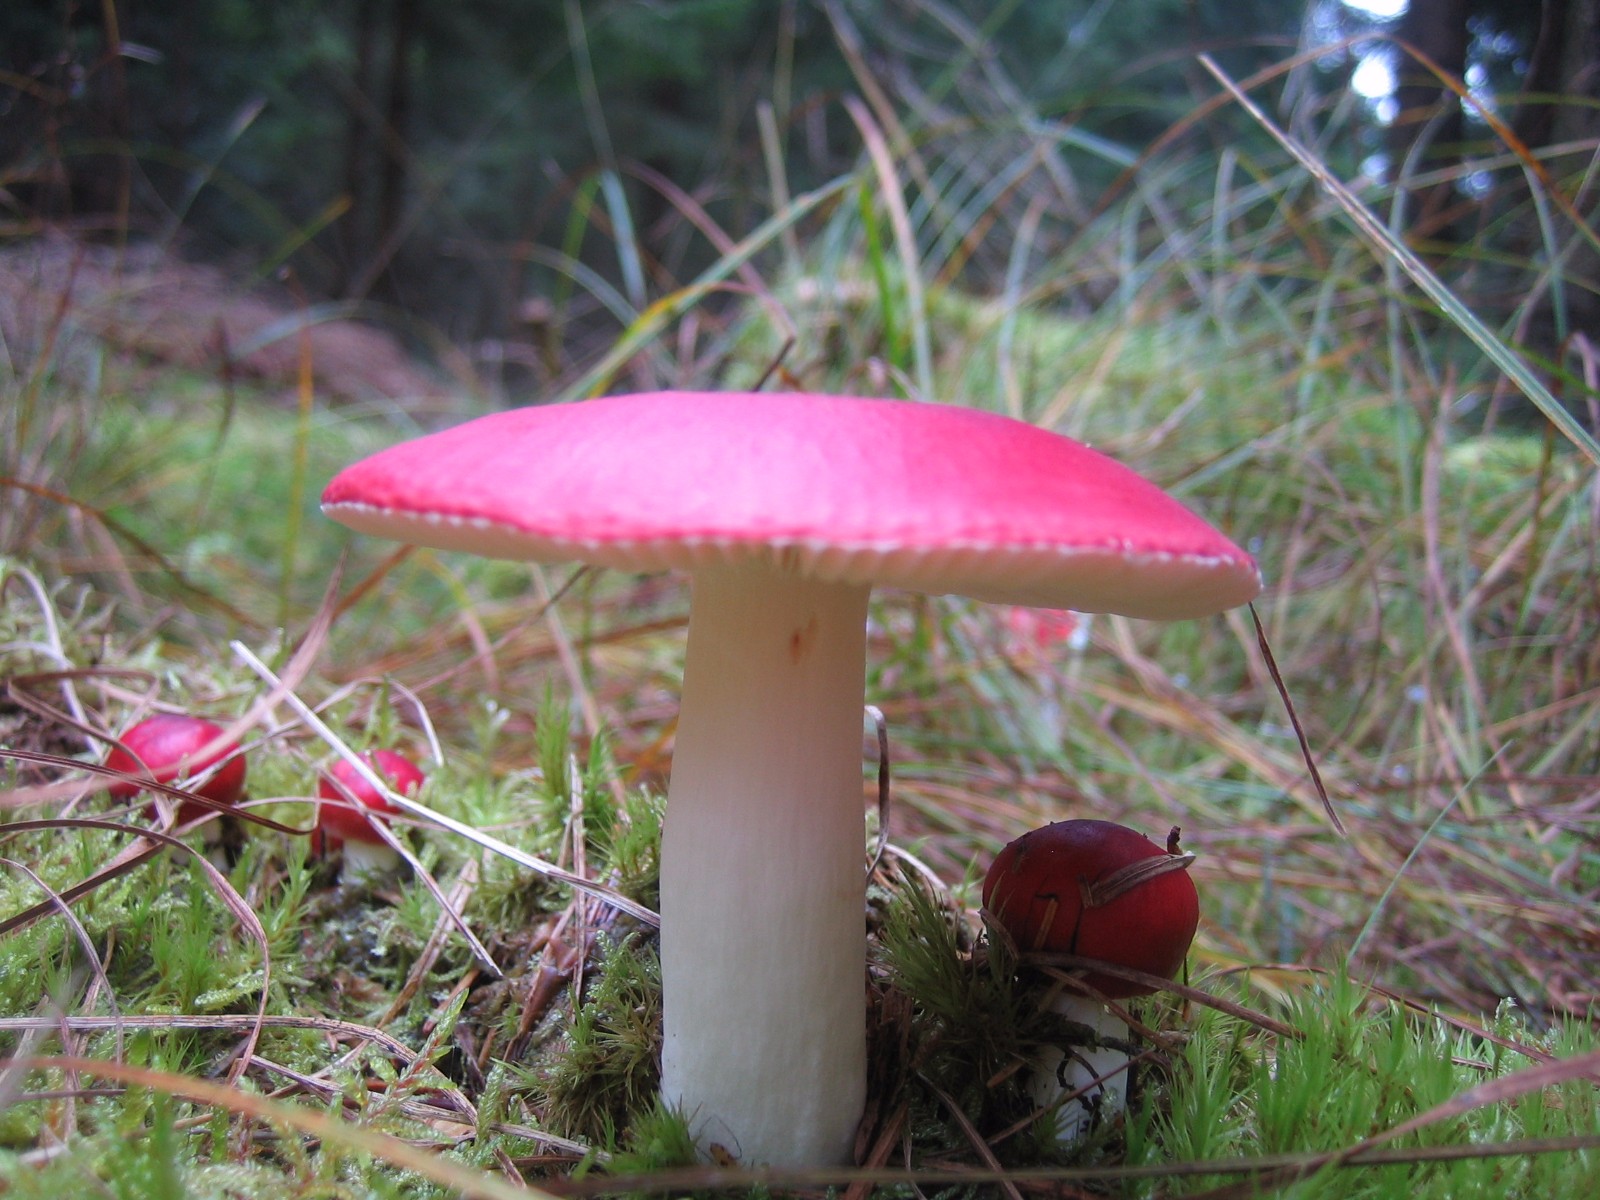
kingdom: Fungi
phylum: Basidiomycota
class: Agaricomycetes
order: Russulales
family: Russulaceae
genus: Russula
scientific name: Russula emetica
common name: stor gift-skørhat
